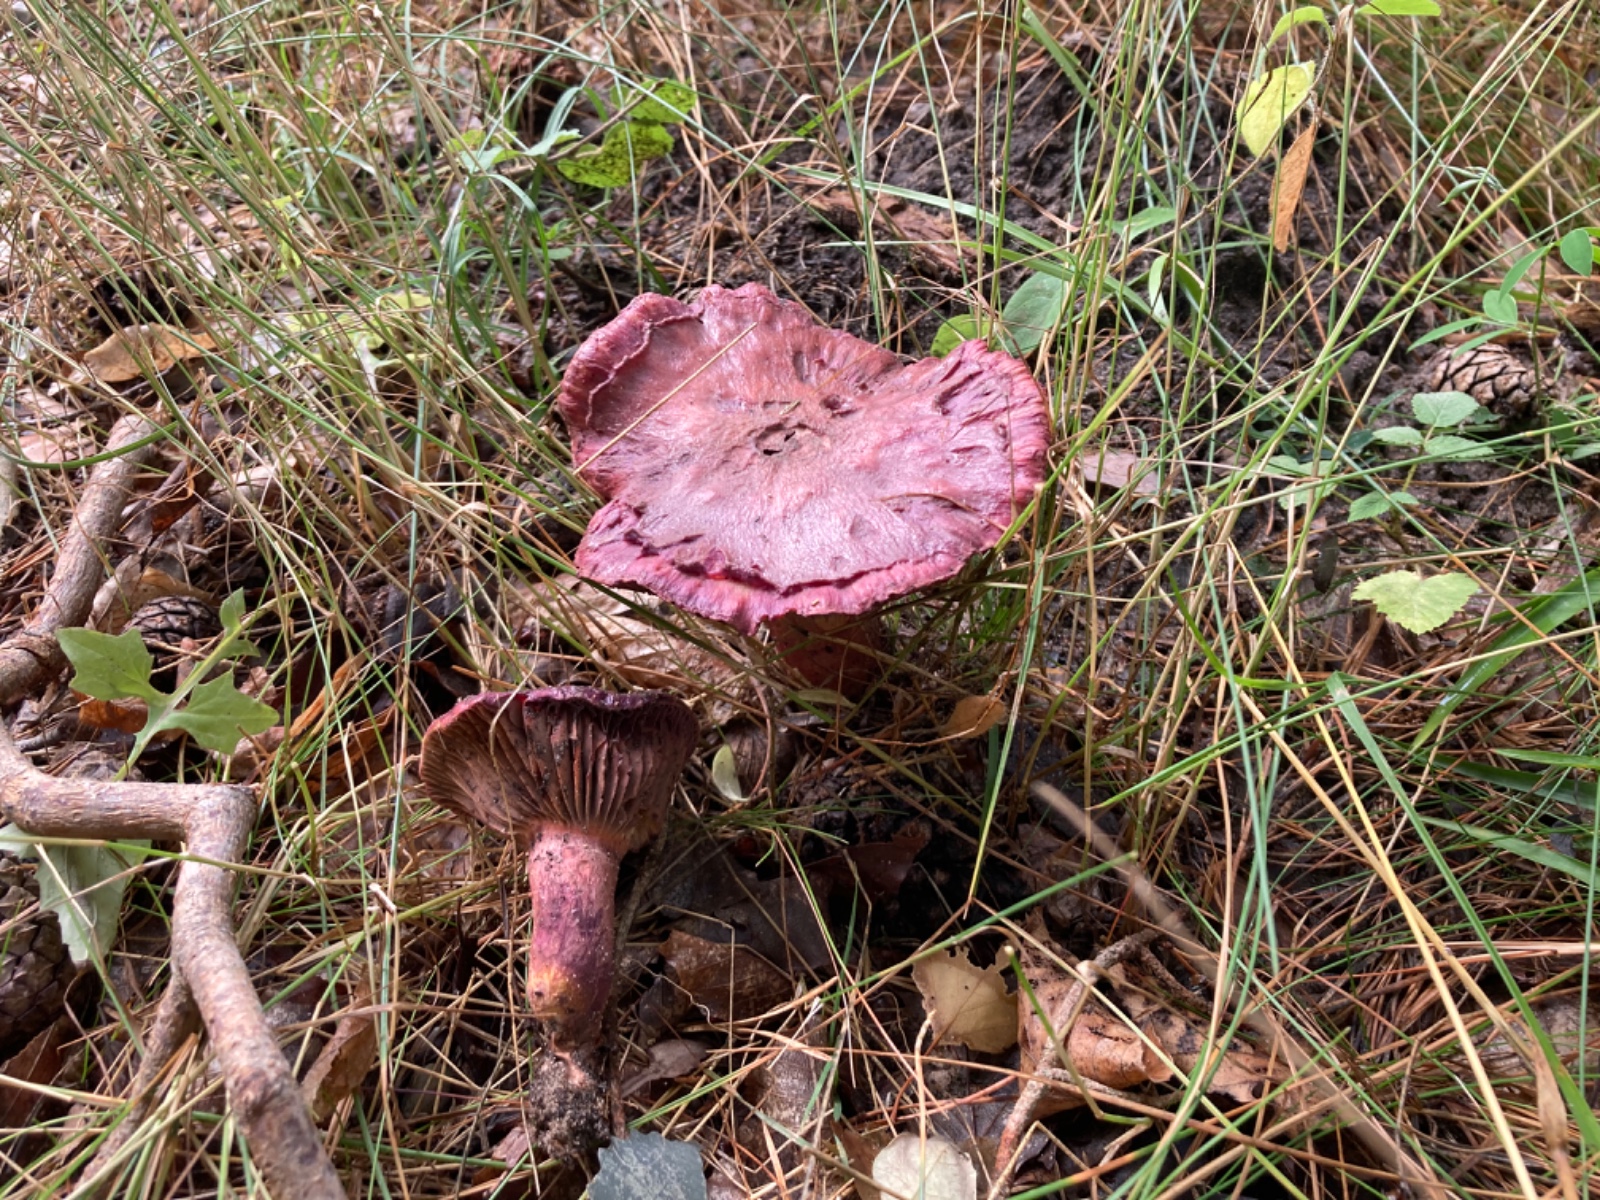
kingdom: Fungi
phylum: Basidiomycota
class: Agaricomycetes
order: Boletales
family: Gomphidiaceae
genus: Chroogomphus
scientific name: Chroogomphus rutilus
